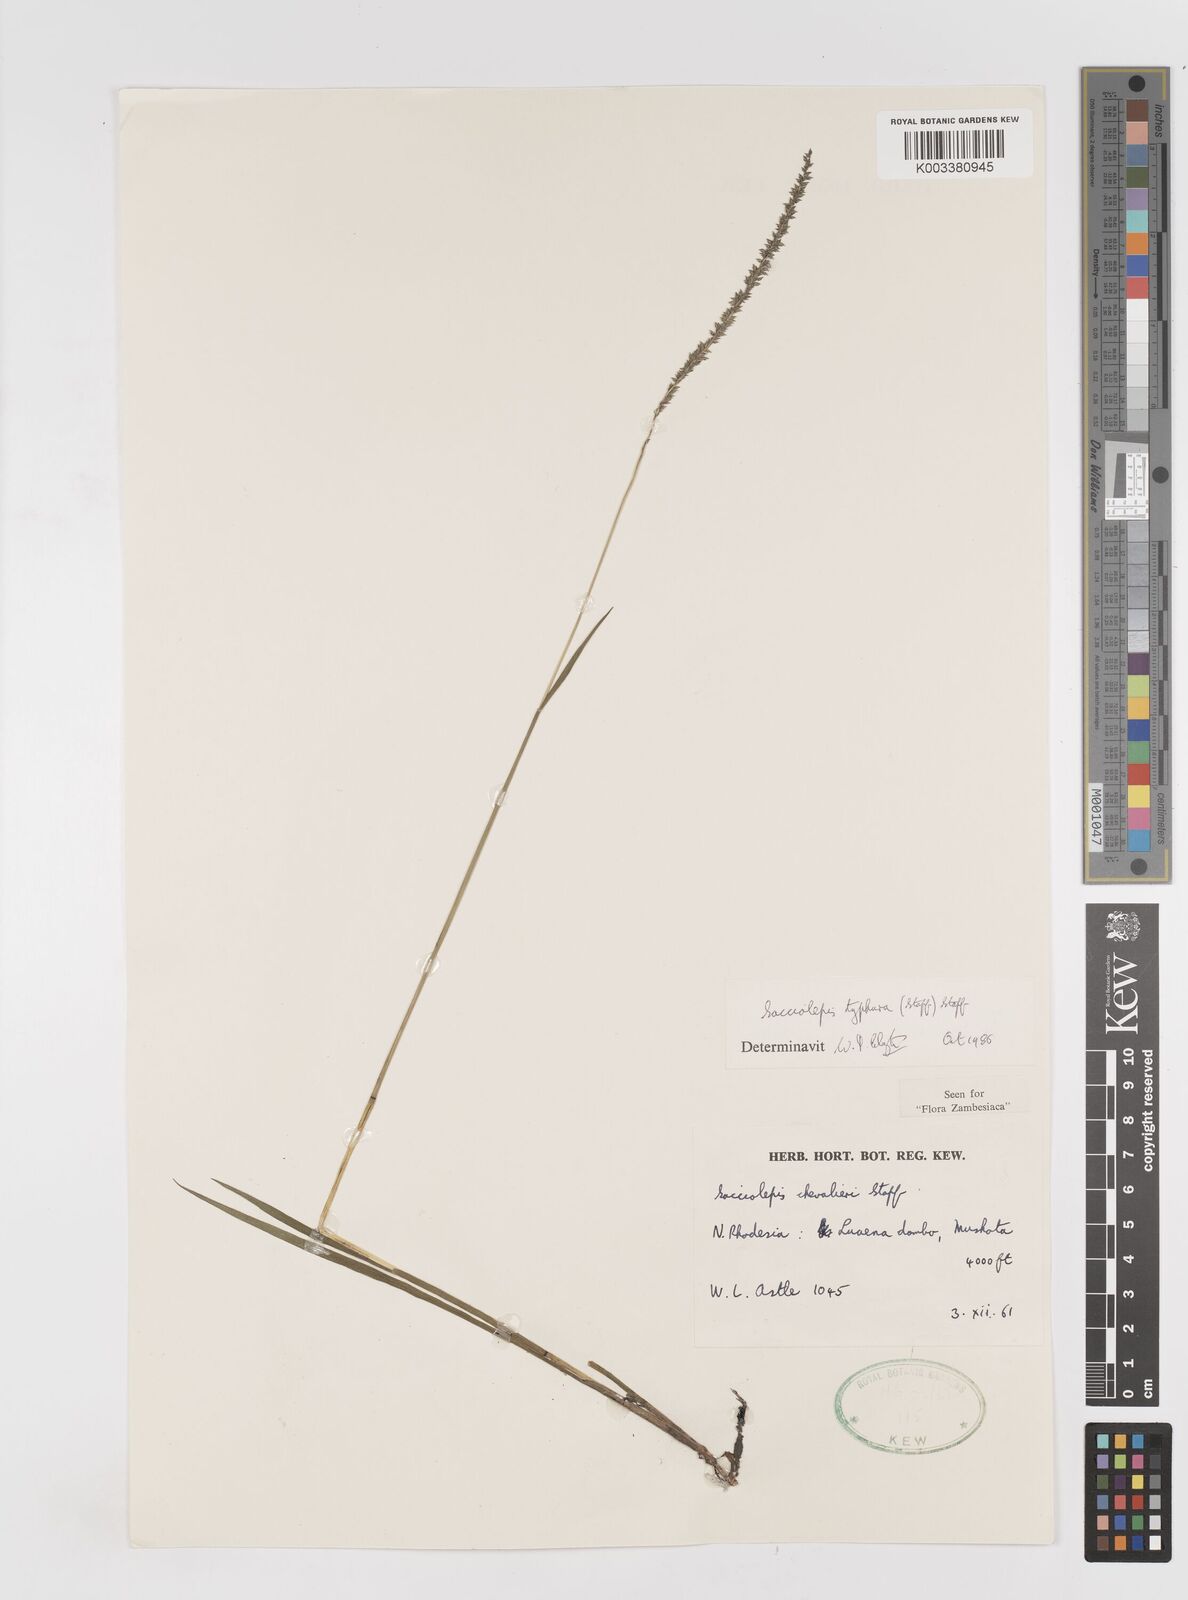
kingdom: Plantae
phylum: Tracheophyta
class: Liliopsida
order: Poales
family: Poaceae
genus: Sacciolepis
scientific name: Sacciolepis typhura
